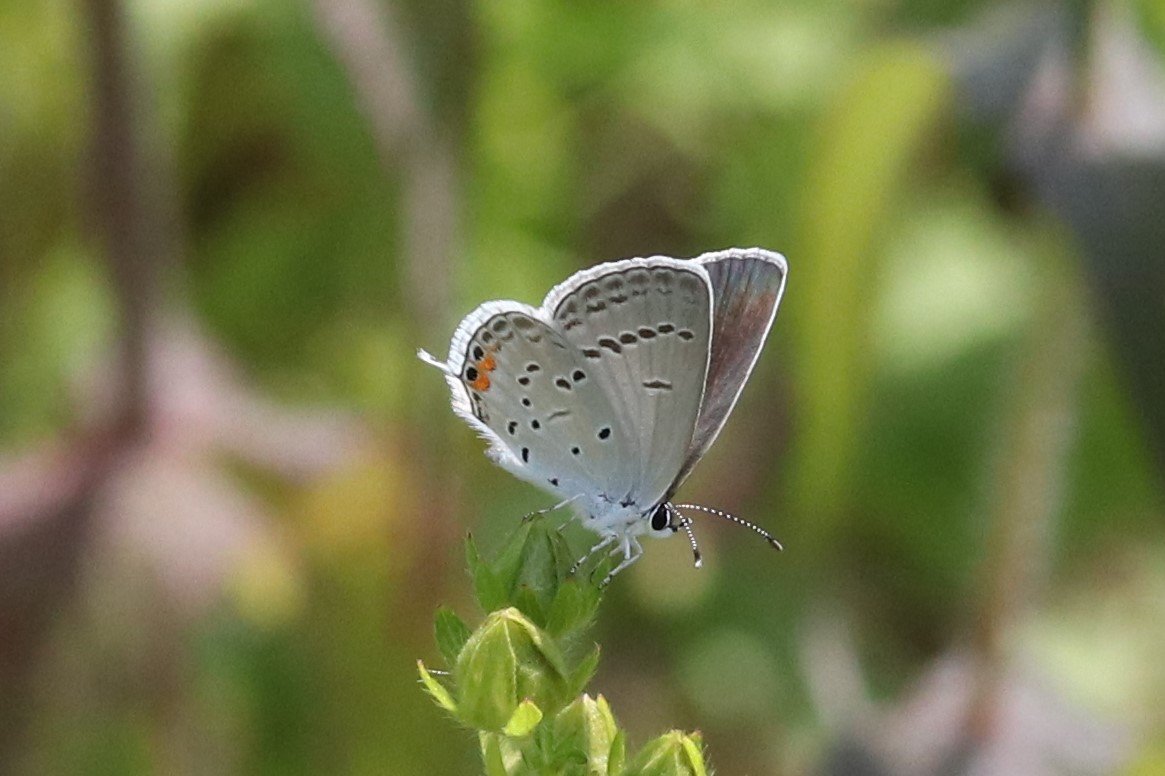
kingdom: Animalia
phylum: Arthropoda
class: Insecta
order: Lepidoptera
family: Lycaenidae
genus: Elkalyce
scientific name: Elkalyce comyntas
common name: Eastern Tailed-Blue
